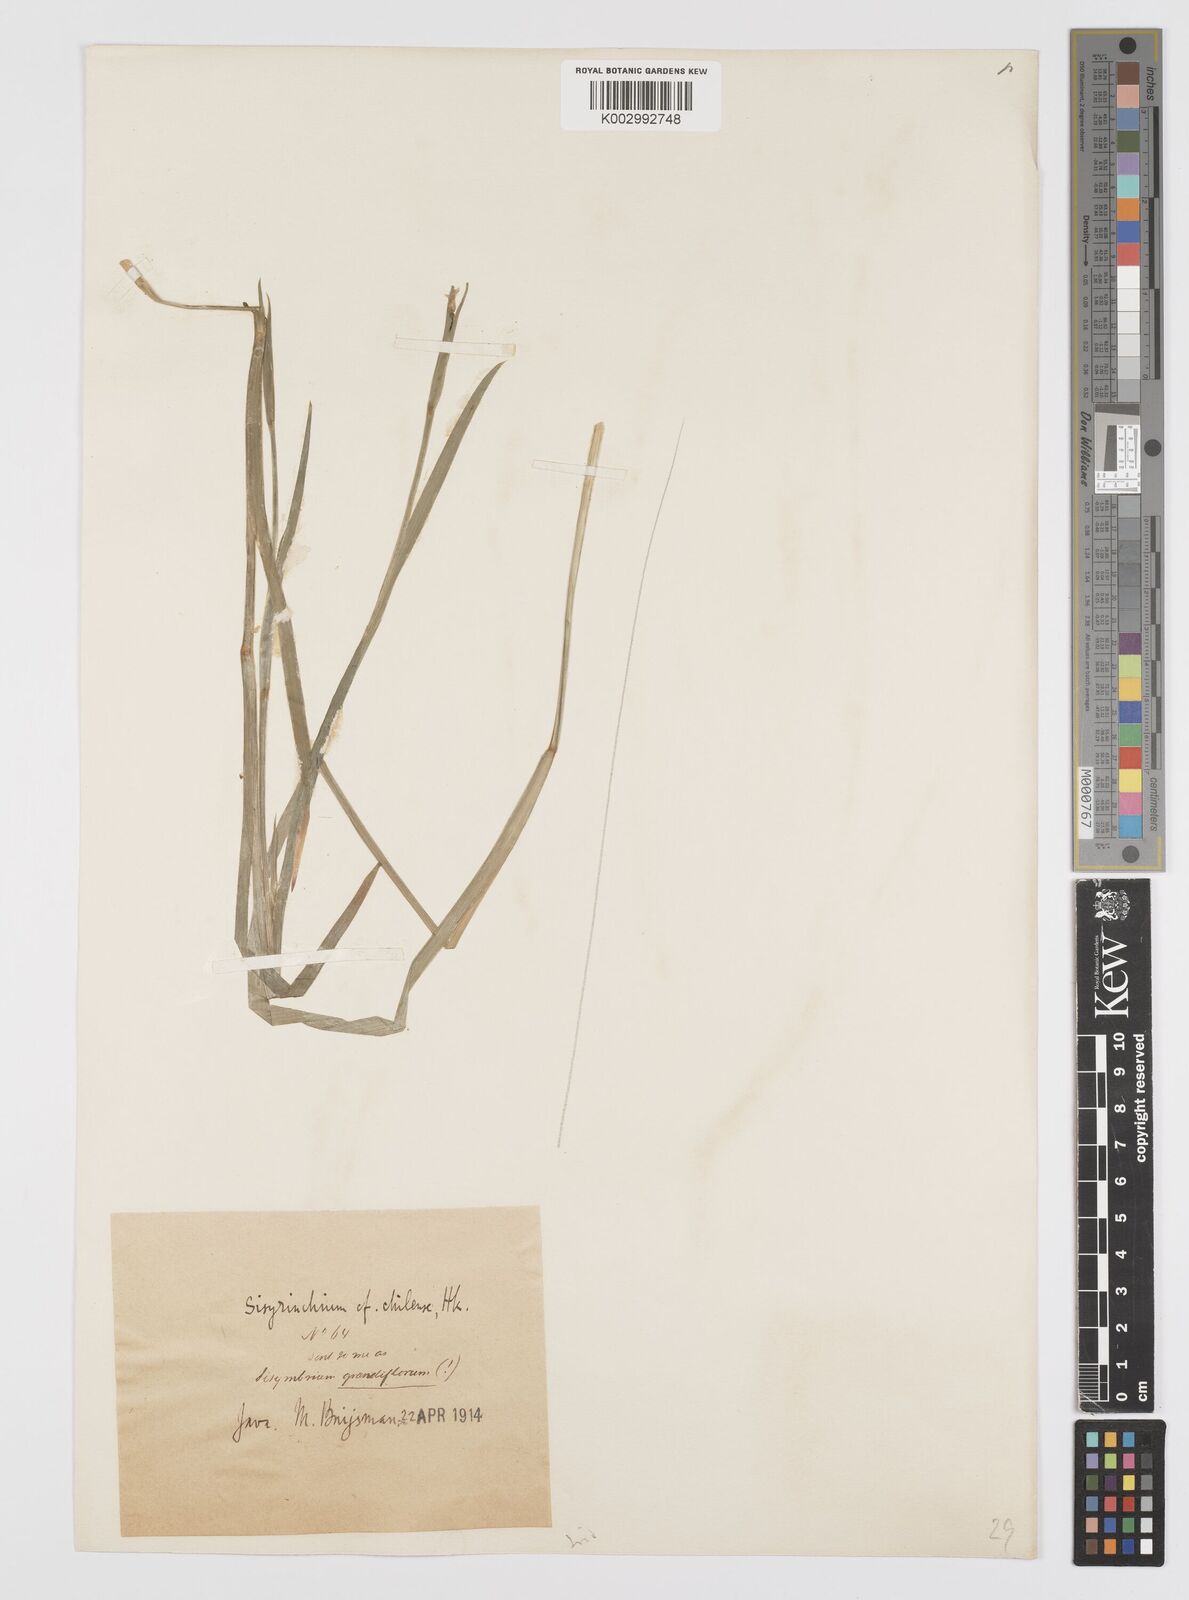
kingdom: Plantae
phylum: Tracheophyta
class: Liliopsida
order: Asparagales
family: Iridaceae
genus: Sisyrinchium
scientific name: Sisyrinchium chilense
